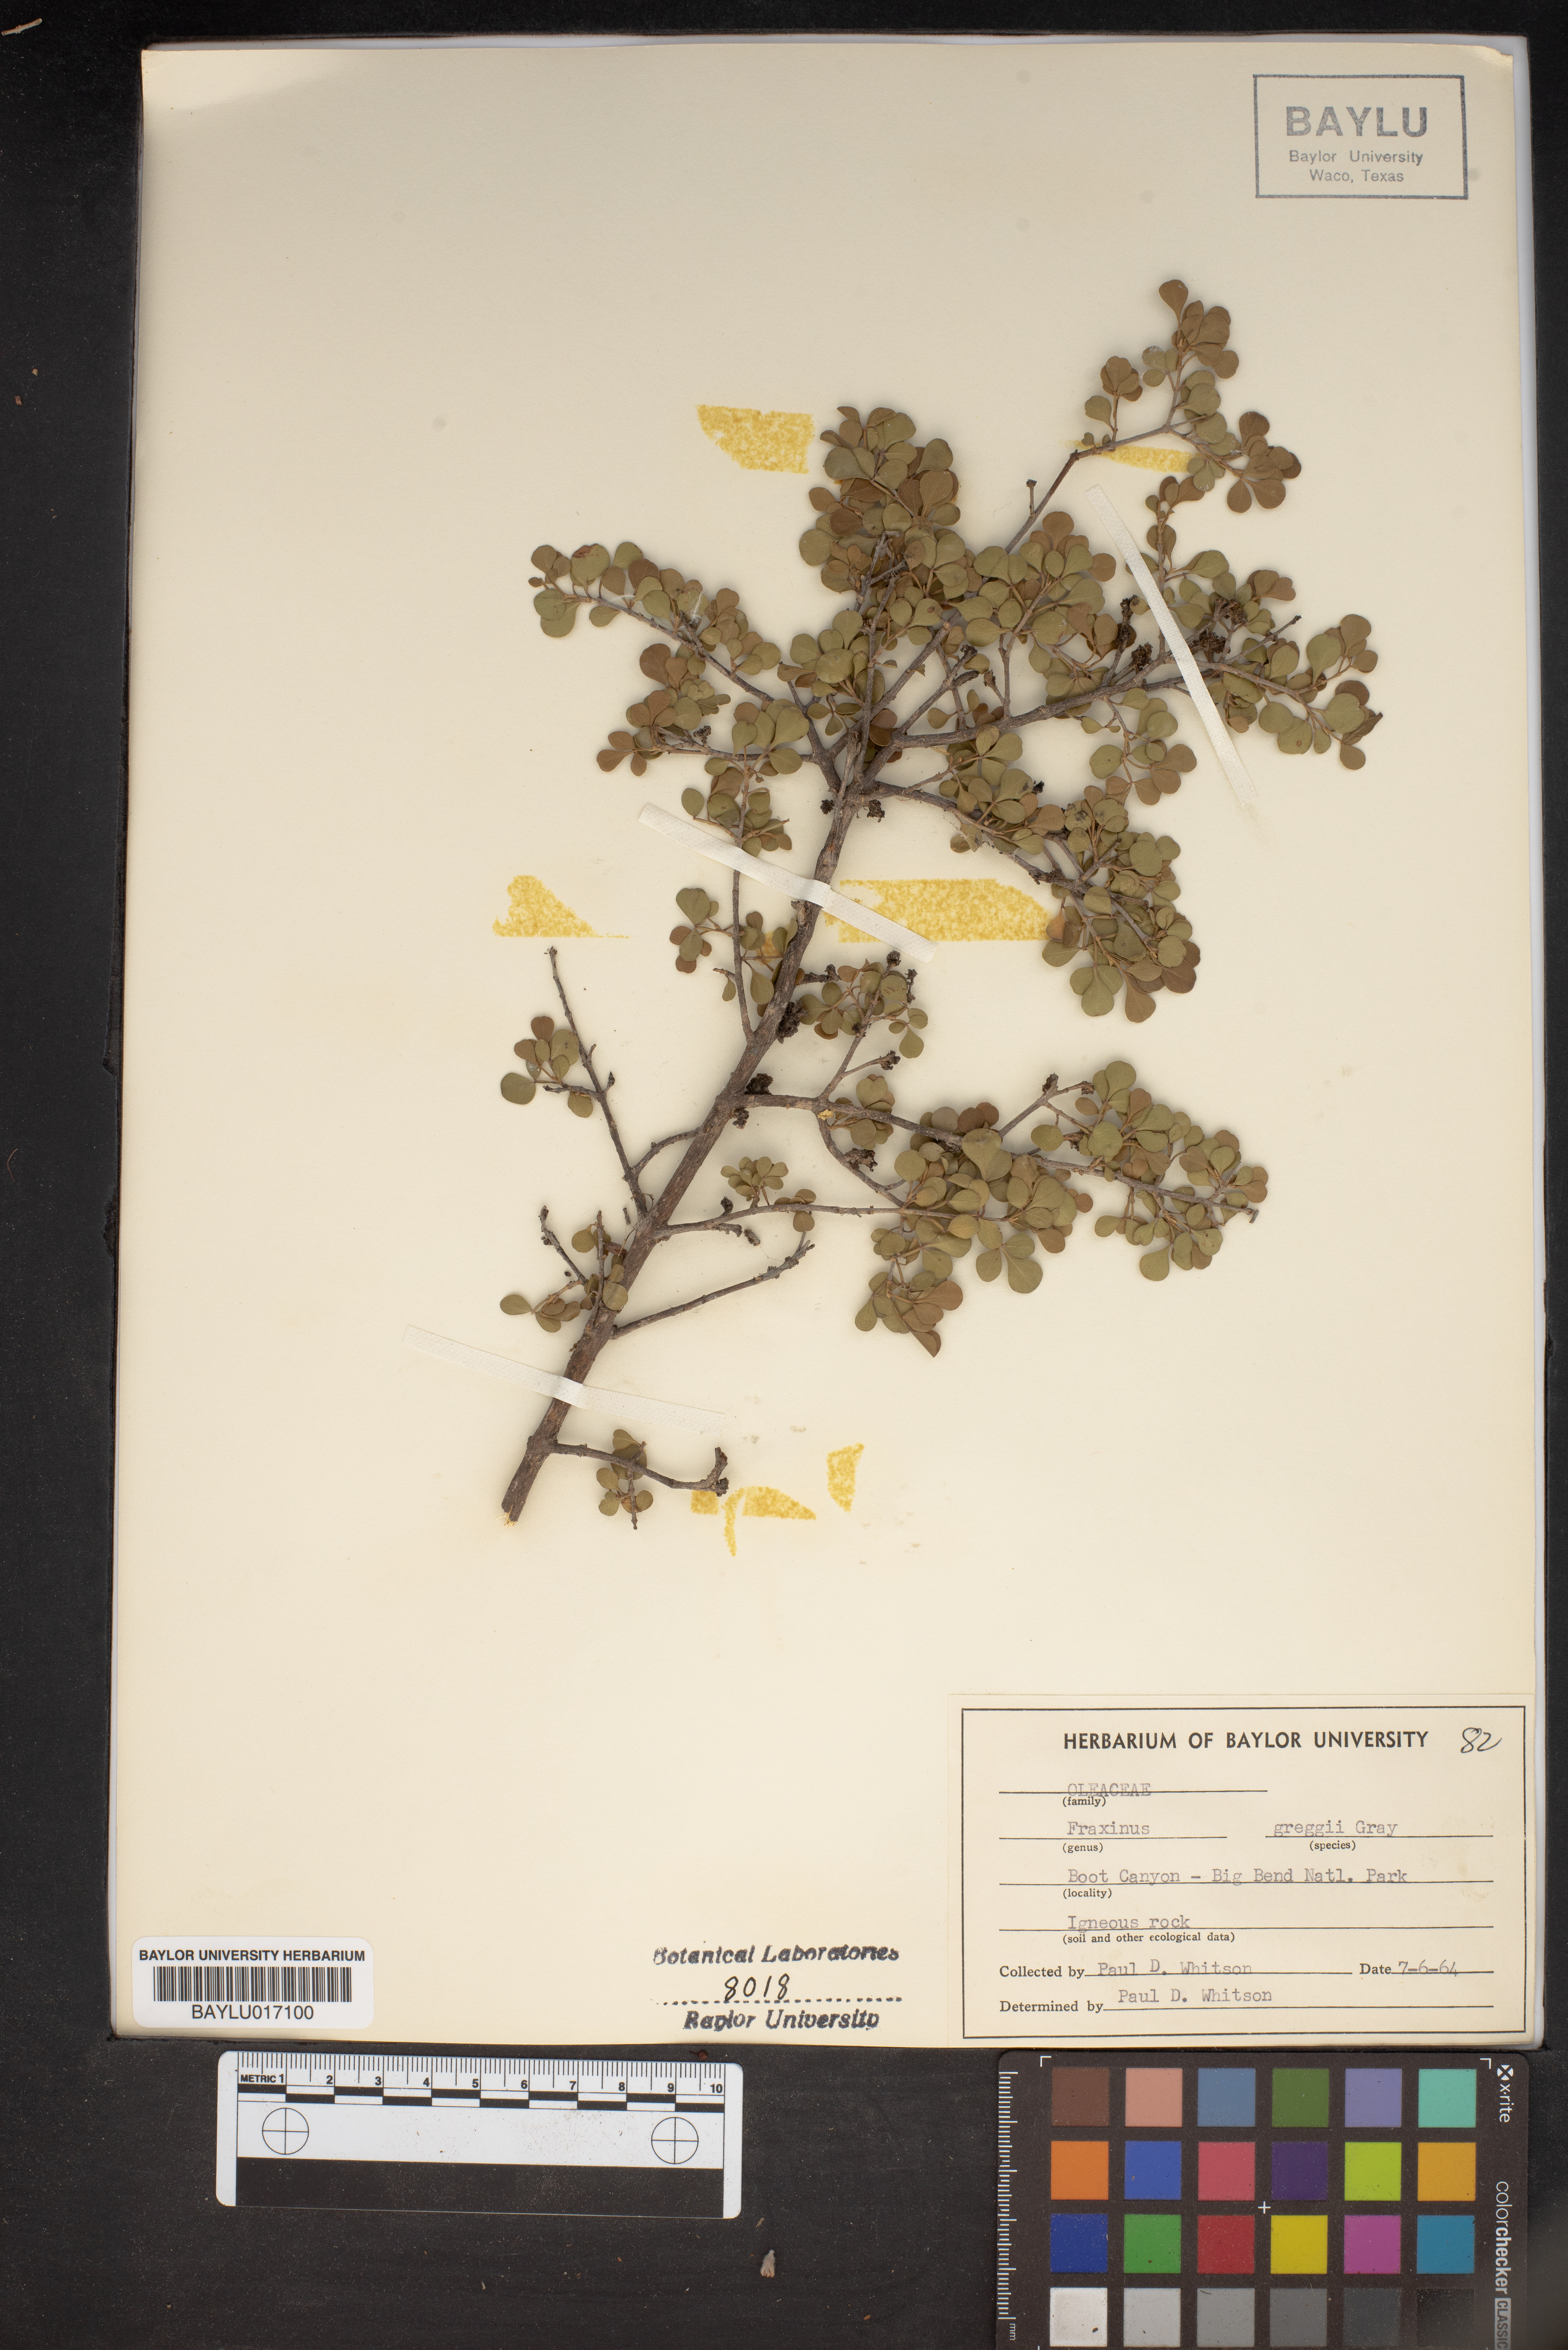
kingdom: Plantae
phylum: Tracheophyta
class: Magnoliopsida
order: Lamiales
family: Oleaceae
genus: Fraxinus
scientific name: Fraxinus greggii
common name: Gregg ash
